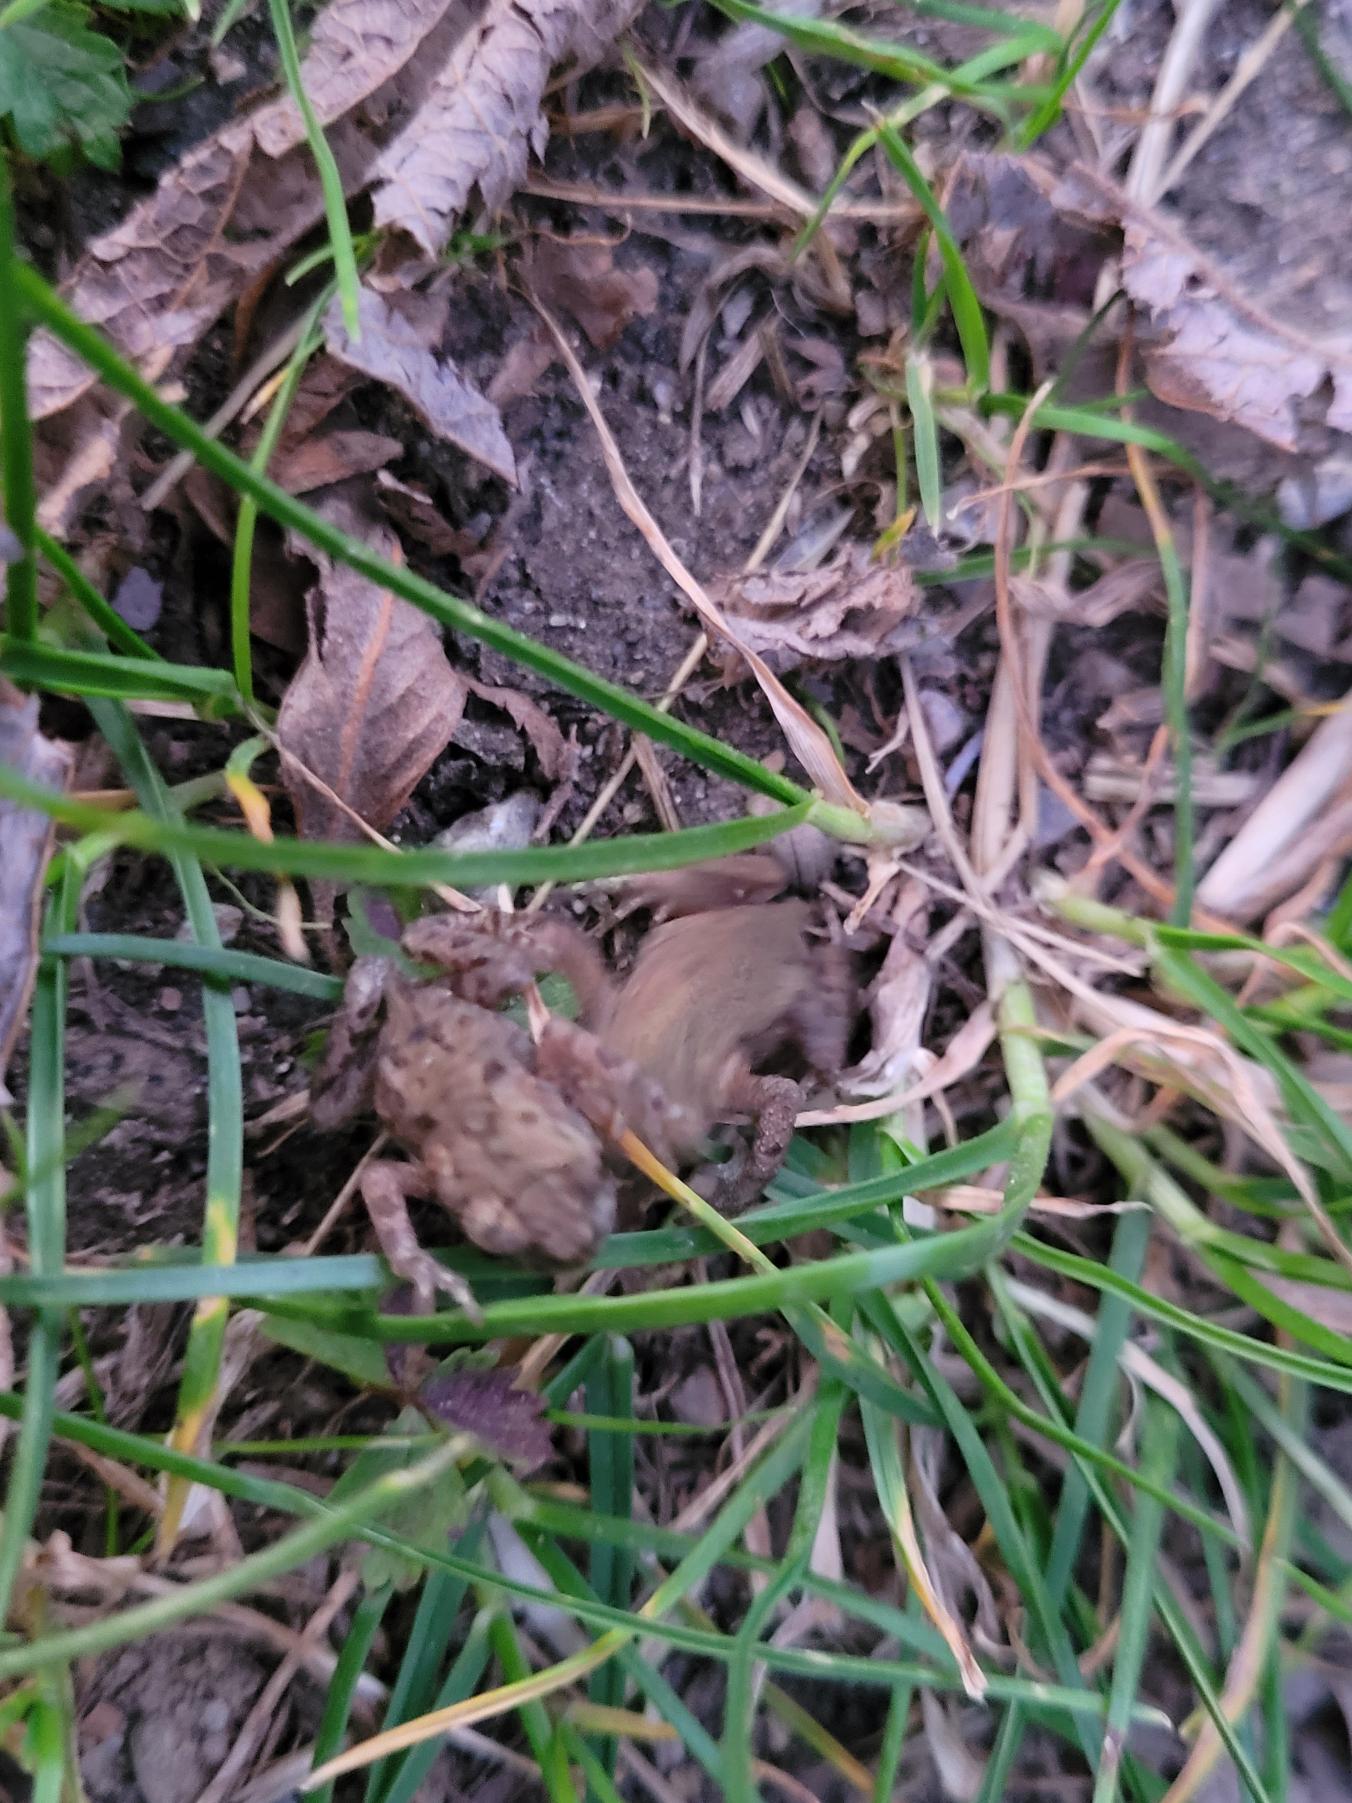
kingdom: Animalia
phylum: Chordata
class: Amphibia
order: Anura
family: Bufonidae
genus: Bufo
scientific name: Bufo bufo
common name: Skrubtudse
